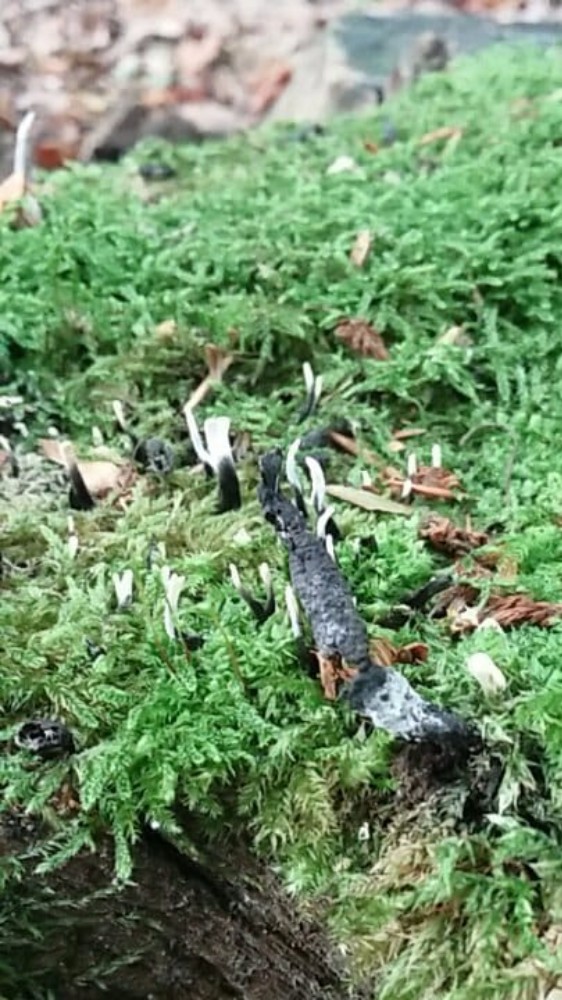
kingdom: Fungi
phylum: Ascomycota
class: Sordariomycetes
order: Xylariales
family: Xylariaceae
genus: Xylaria
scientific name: Xylaria hypoxylon
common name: grenet stødsvamp
